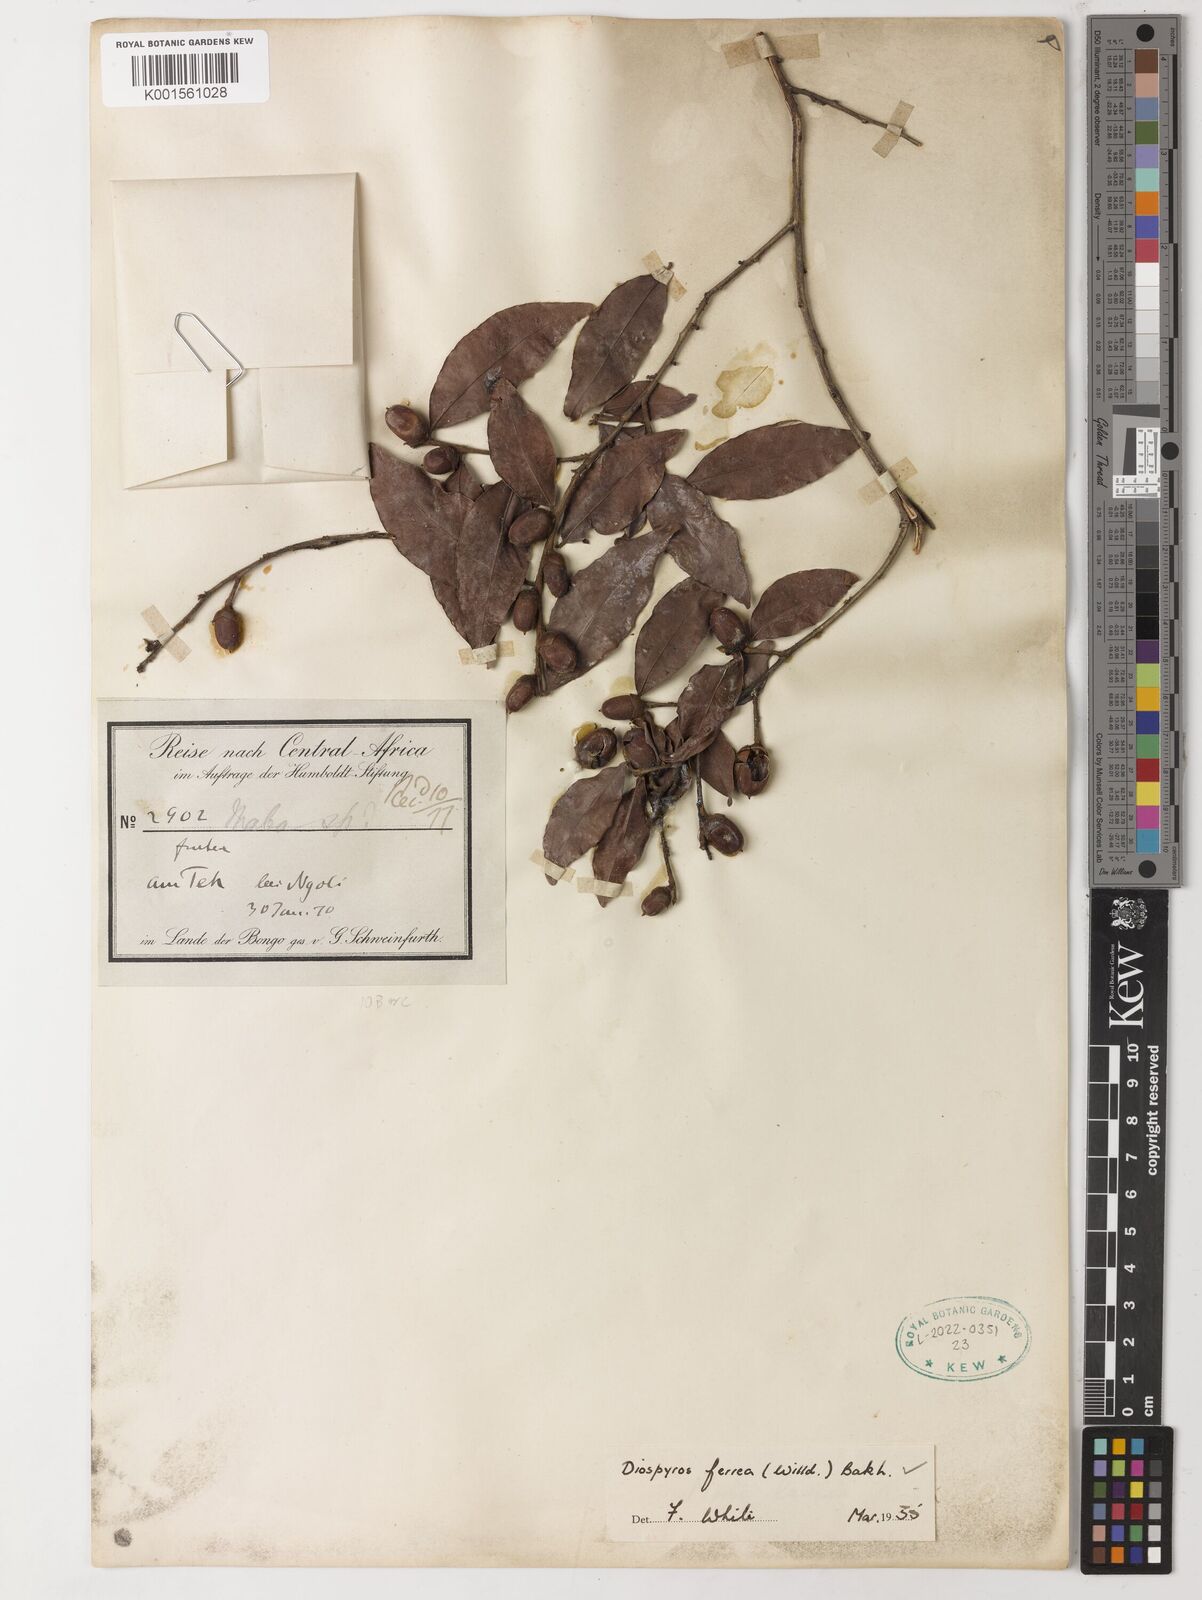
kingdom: Plantae
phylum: Tracheophyta
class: Magnoliopsida
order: Ericales
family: Ebenaceae
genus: Diospyros
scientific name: Diospyros ferrea
